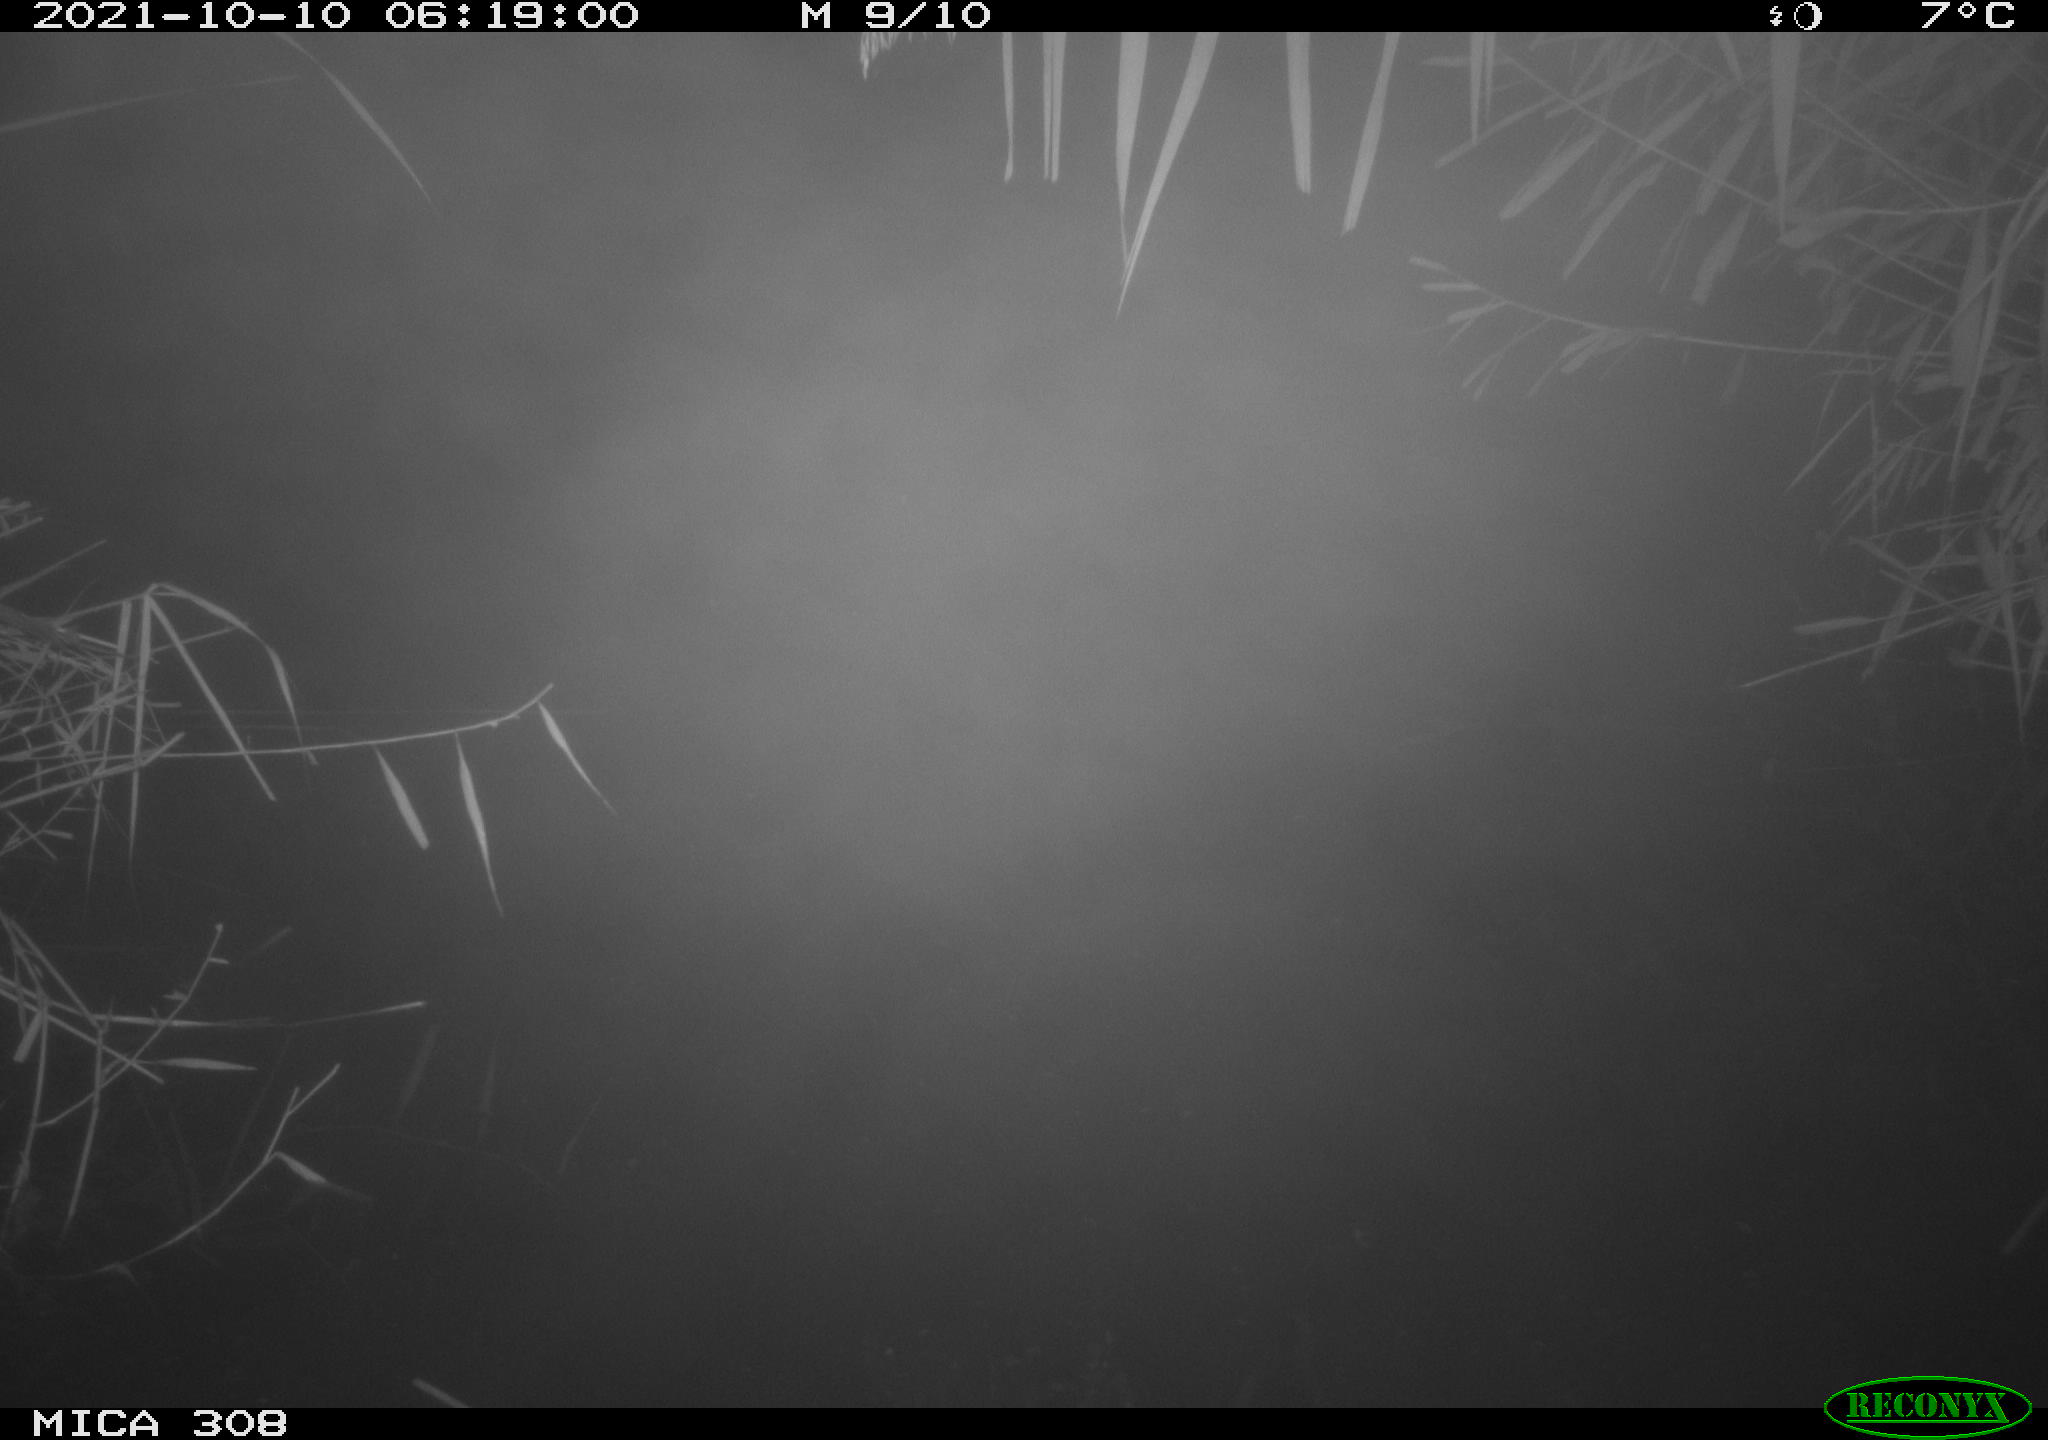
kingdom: Animalia
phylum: Chordata
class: Aves
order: Anseriformes
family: Anatidae
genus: Spatula
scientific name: Spatula clypeata
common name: Northern shoveler
